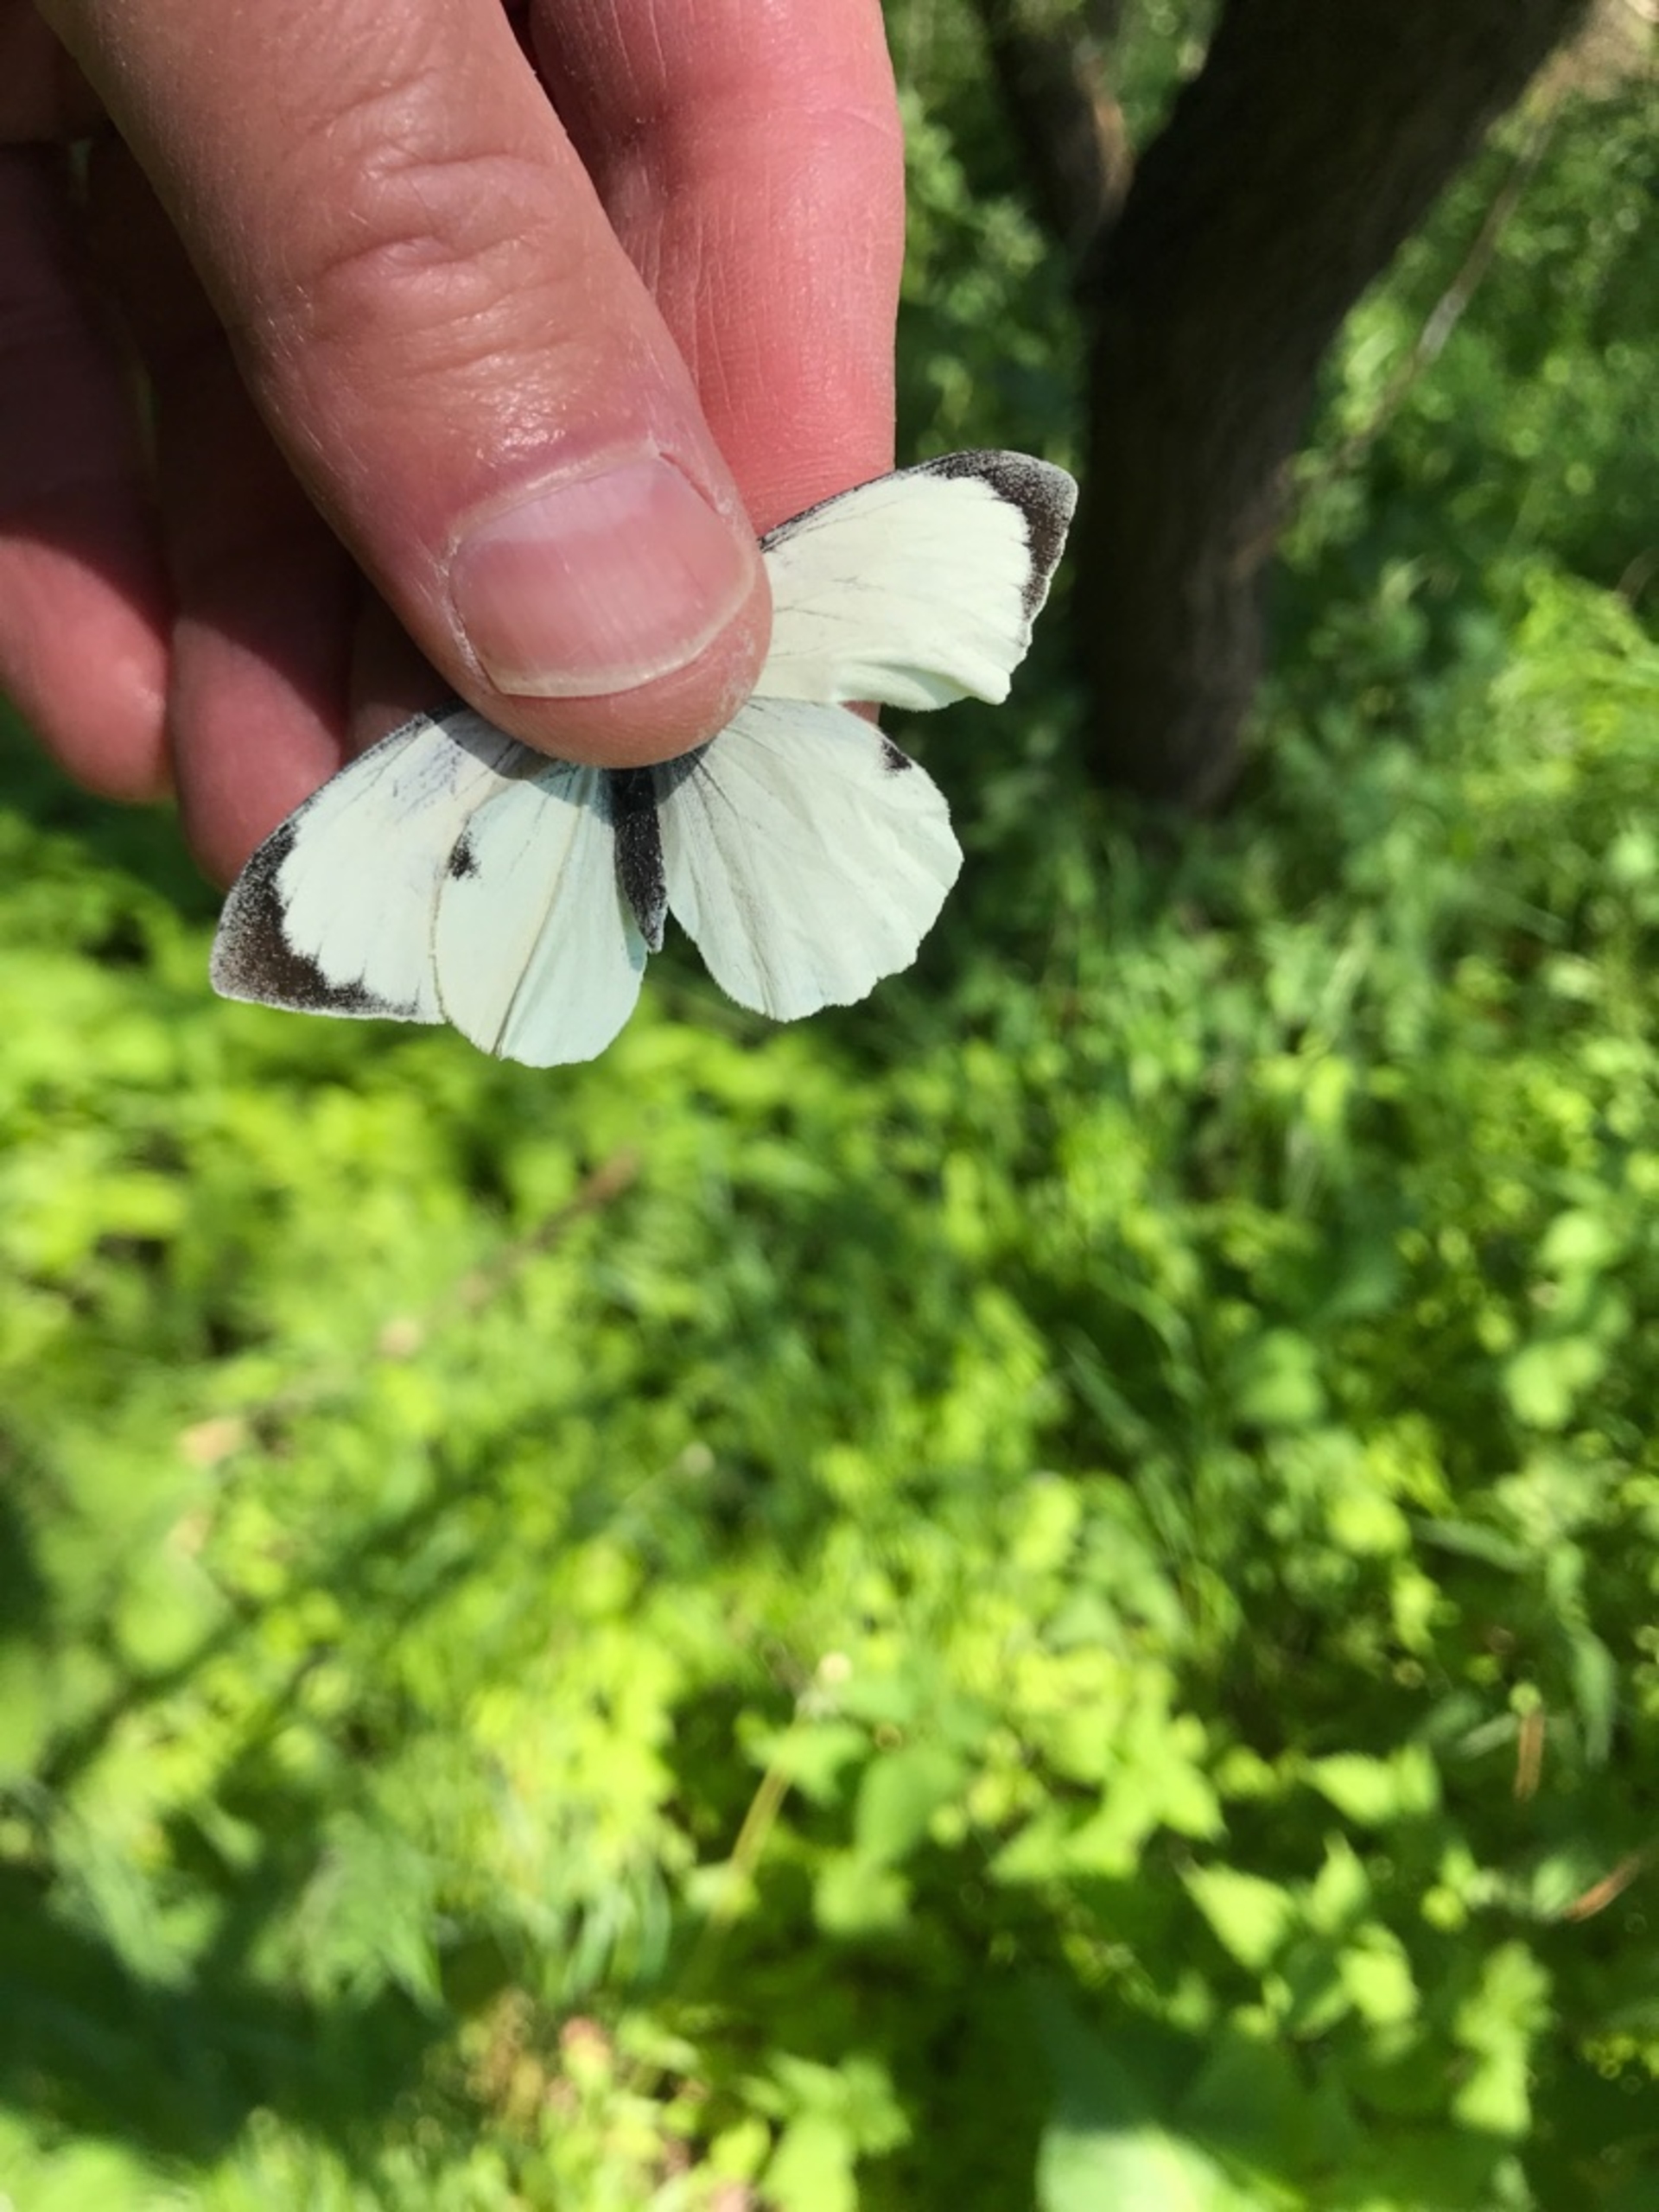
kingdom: Animalia
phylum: Arthropoda
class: Insecta
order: Lepidoptera
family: Pieridae
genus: Pieris
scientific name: Pieris brassicae
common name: Stor kålsommerfugl
